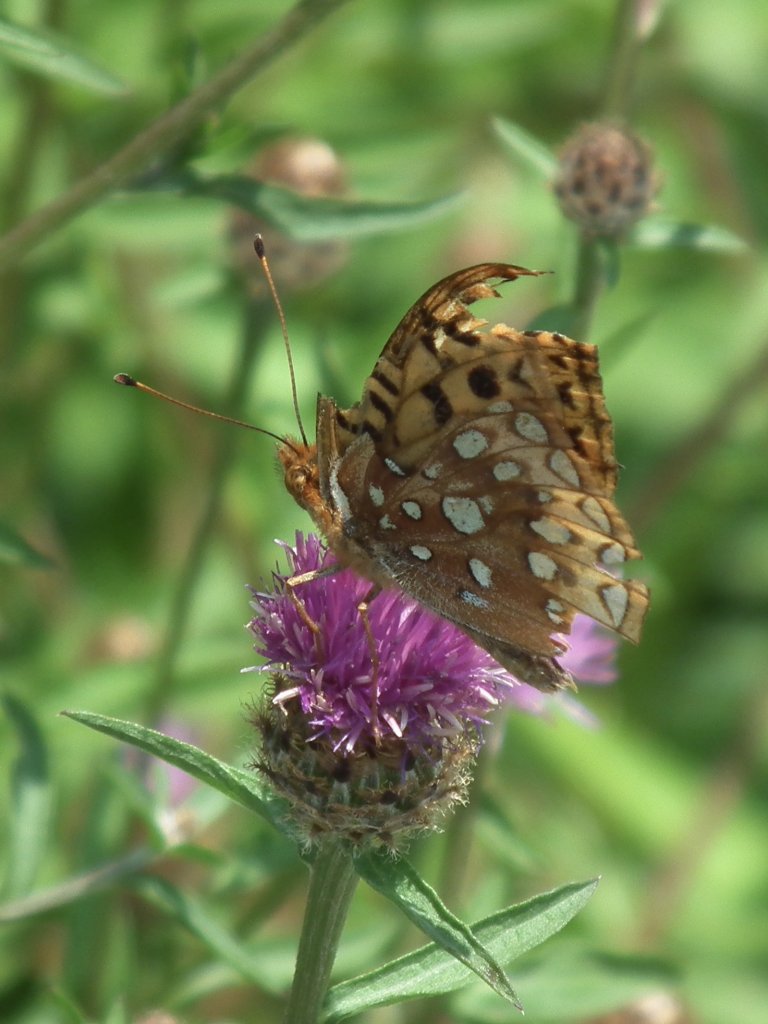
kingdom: Animalia
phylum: Arthropoda
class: Insecta
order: Lepidoptera
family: Nymphalidae
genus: Speyeria
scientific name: Speyeria cybele
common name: Great Spangled Fritillary
